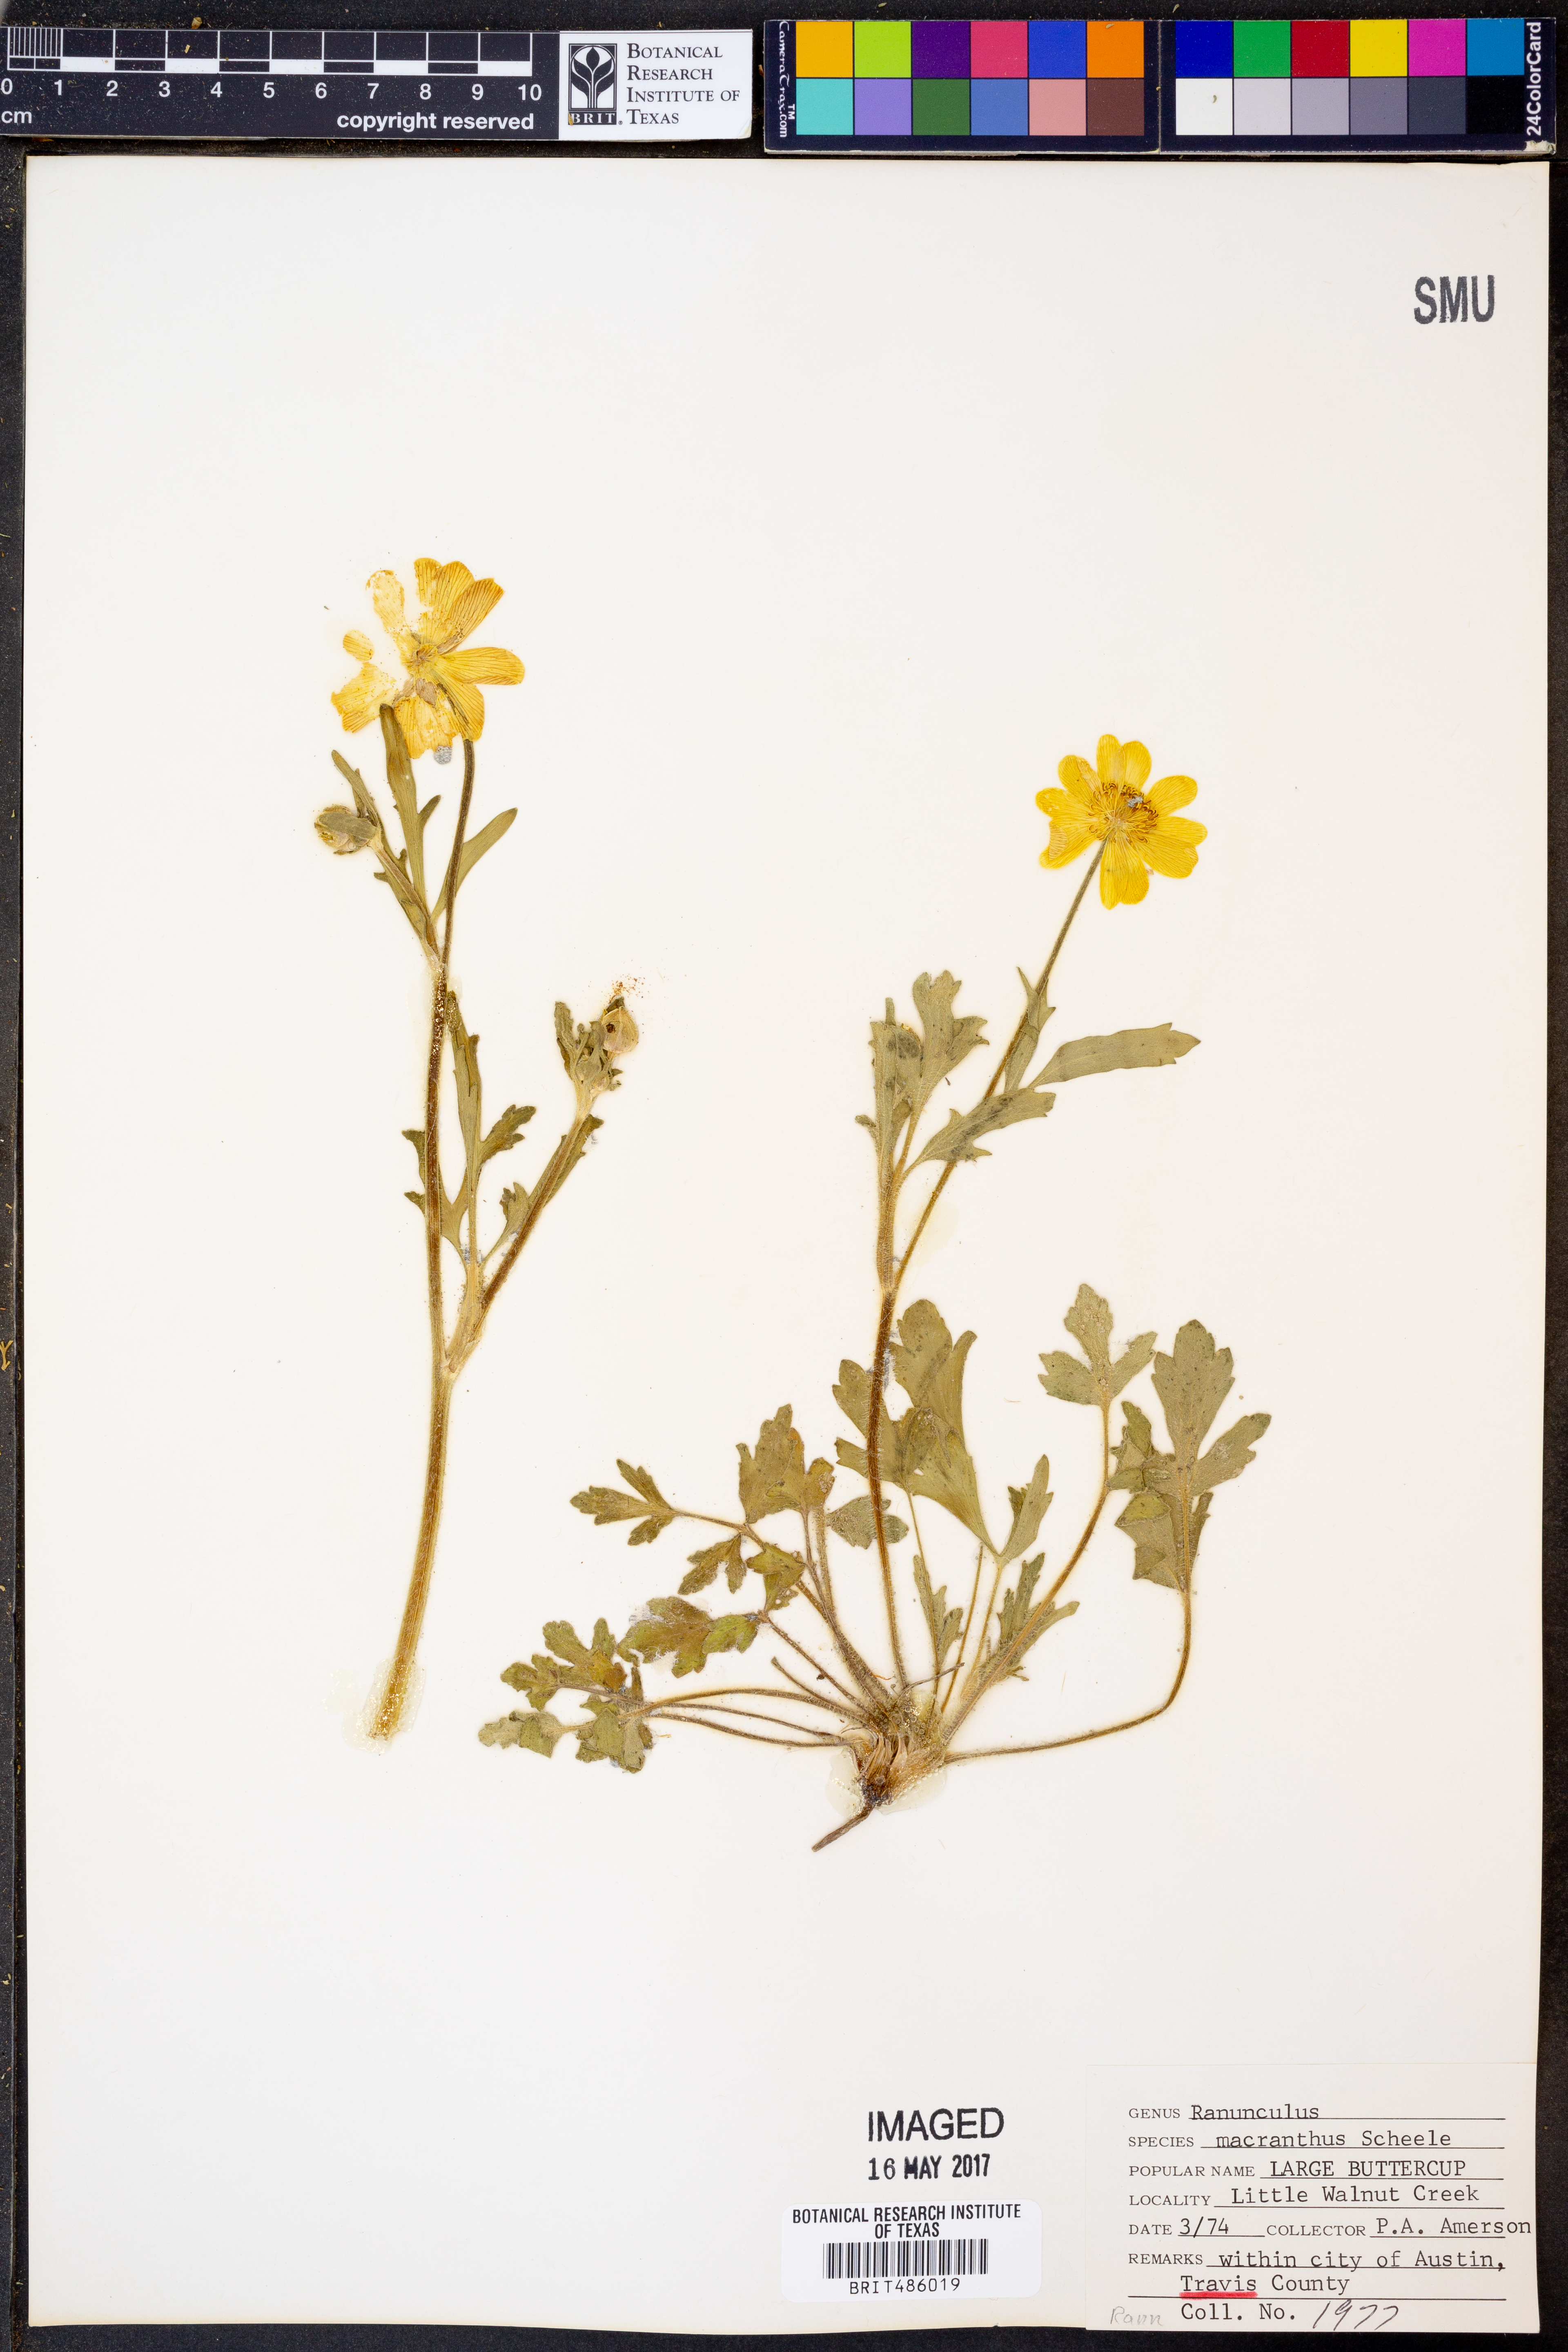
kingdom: Plantae
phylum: Tracheophyta
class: Magnoliopsida
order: Ranunculales
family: Ranunculaceae
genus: Ranunculus
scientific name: Ranunculus macranthus
